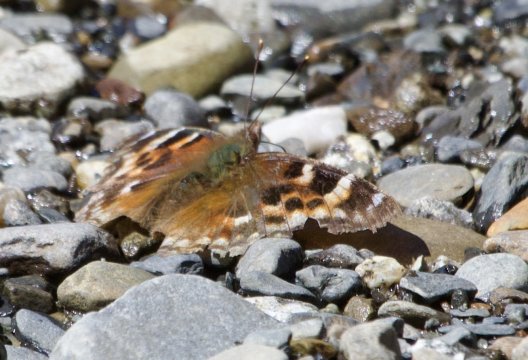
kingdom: Animalia
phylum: Arthropoda
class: Insecta
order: Lepidoptera
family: Nymphalidae
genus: Polygonia
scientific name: Polygonia vaualbum
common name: Compton Tortoiseshell
